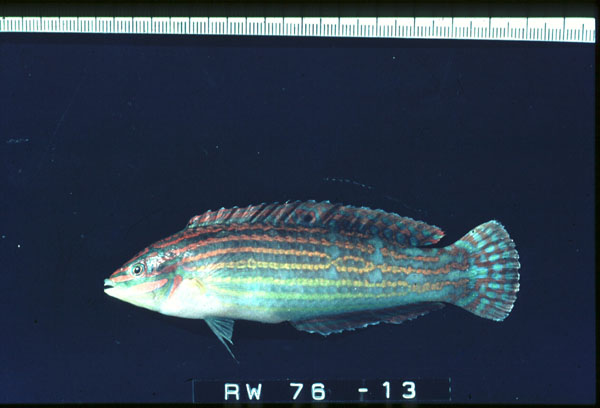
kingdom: Animalia
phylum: Chordata
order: Perciformes
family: Labridae
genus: Halichoeres
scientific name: Halichoeres cosmetus
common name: Adorned wrasse
